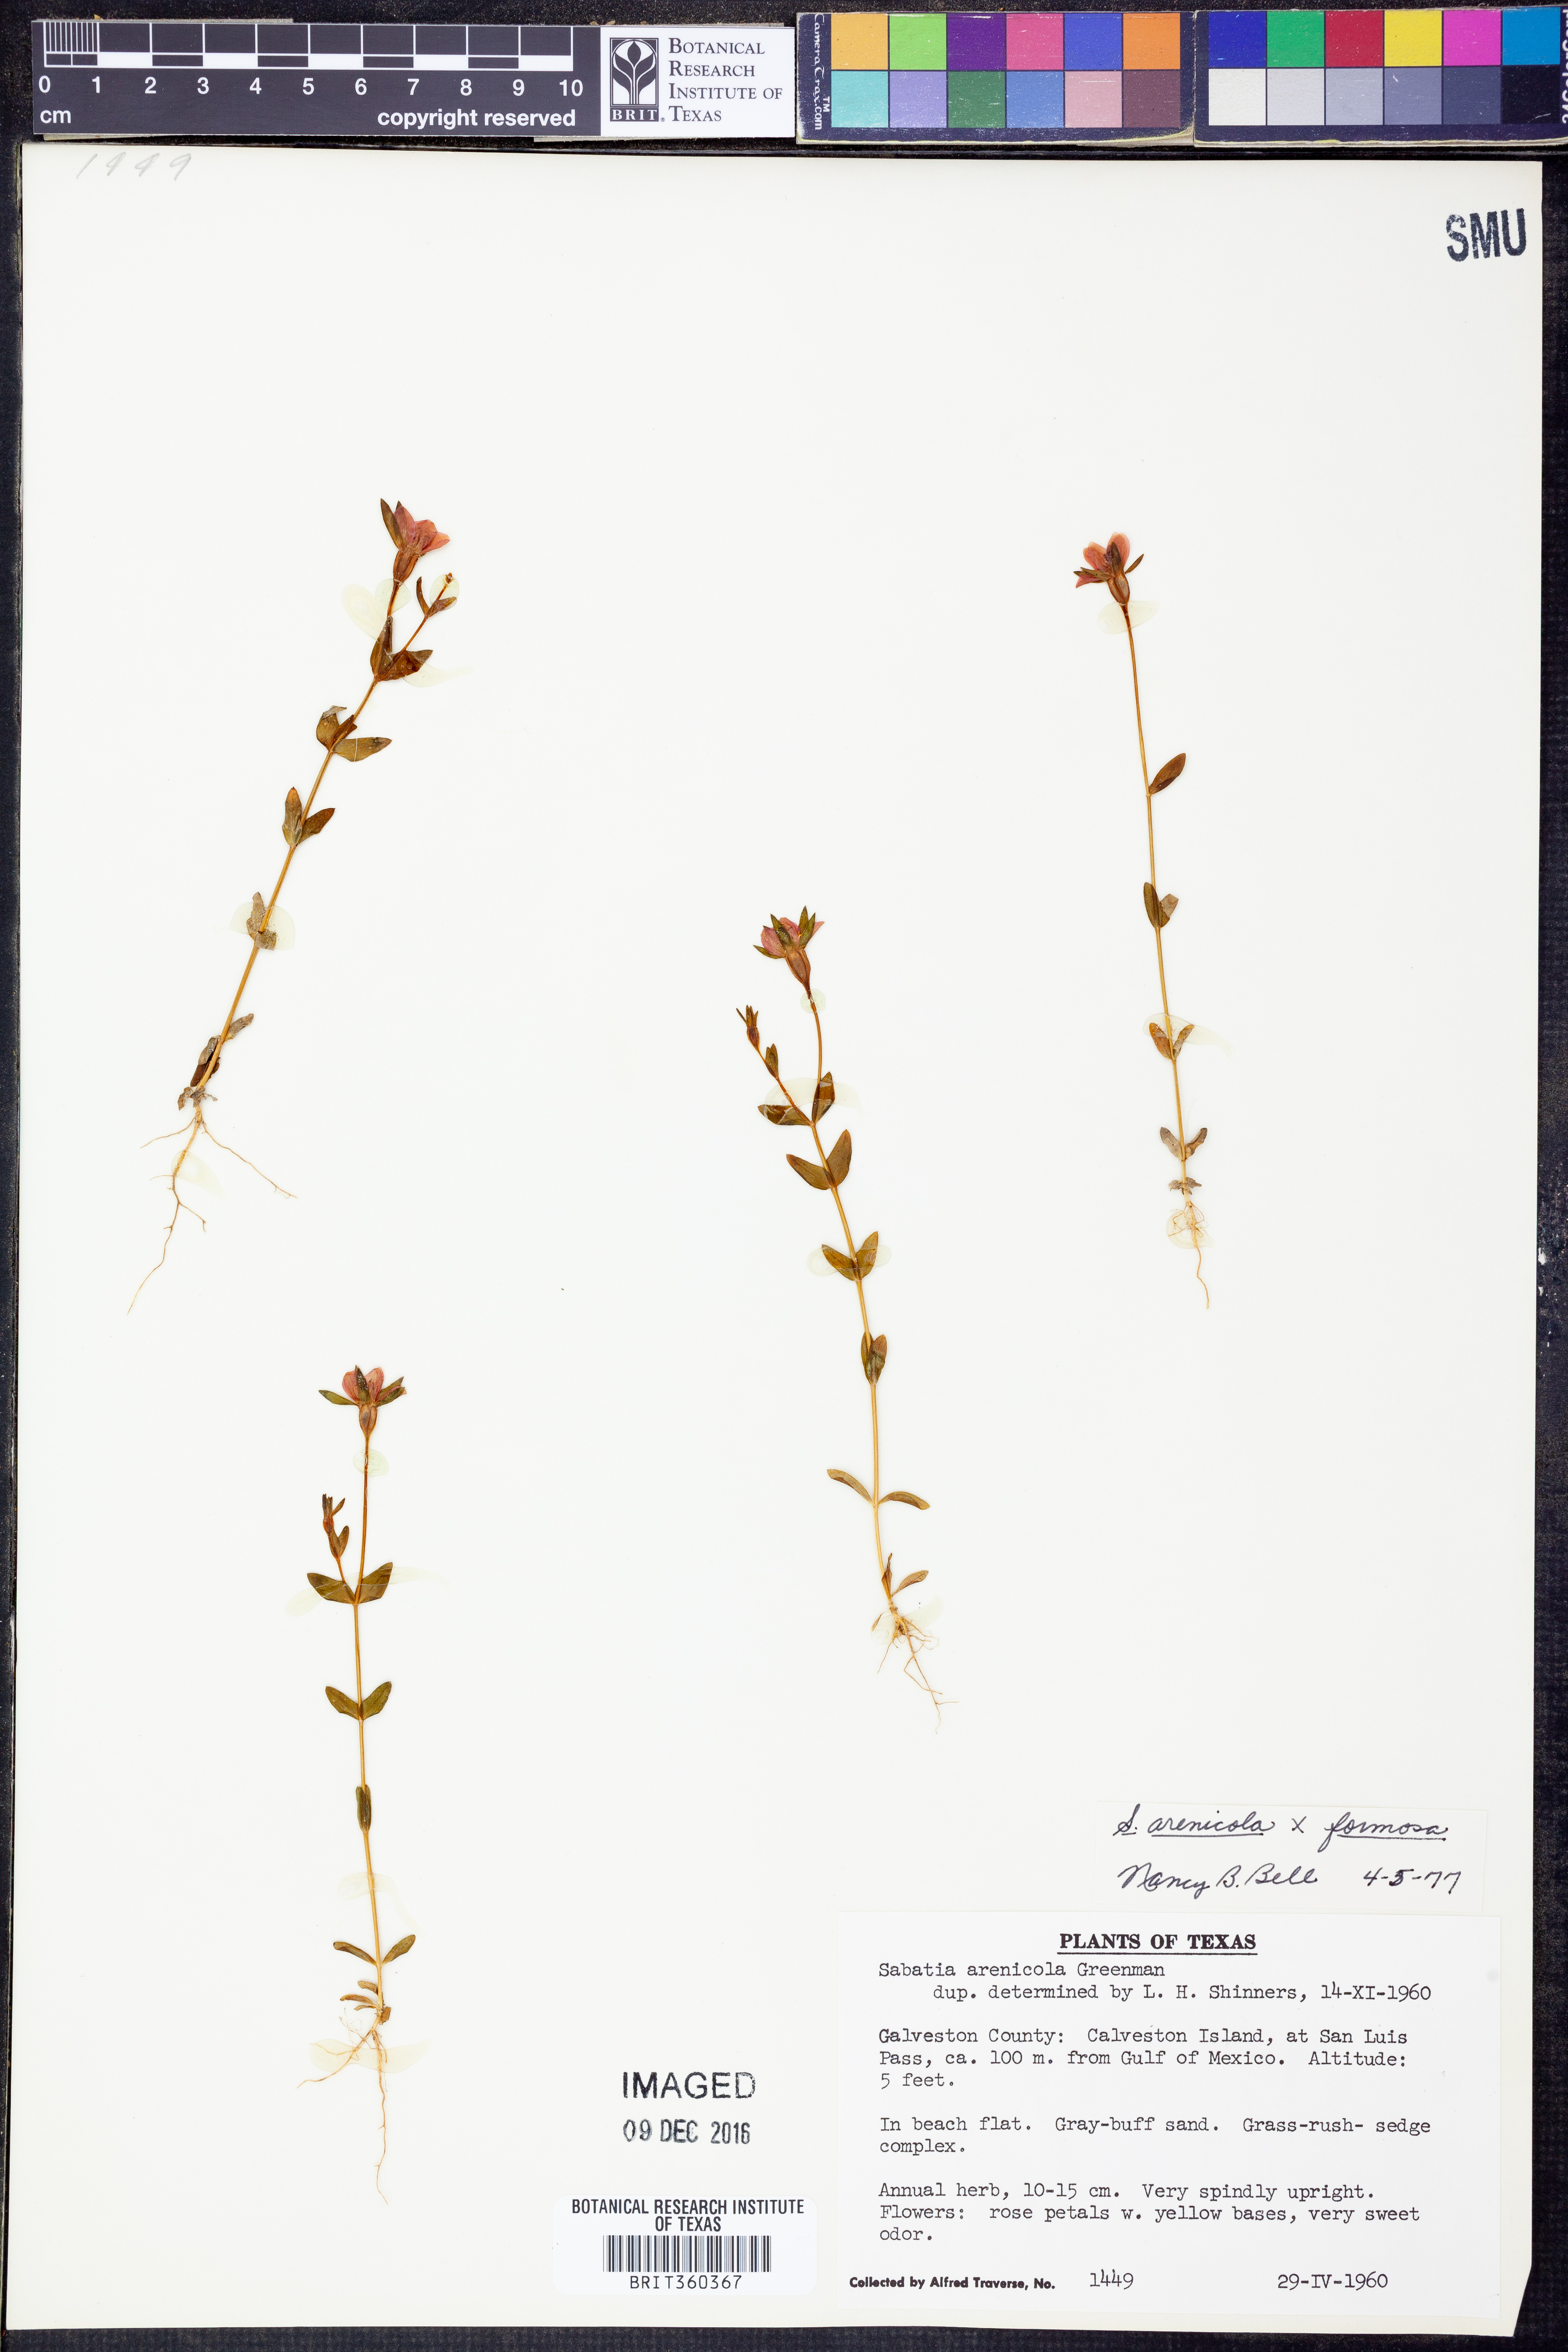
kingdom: Plantae
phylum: Tracheophyta
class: Magnoliopsida
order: Gentianales
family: Gentianaceae
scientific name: Gentianaceae
